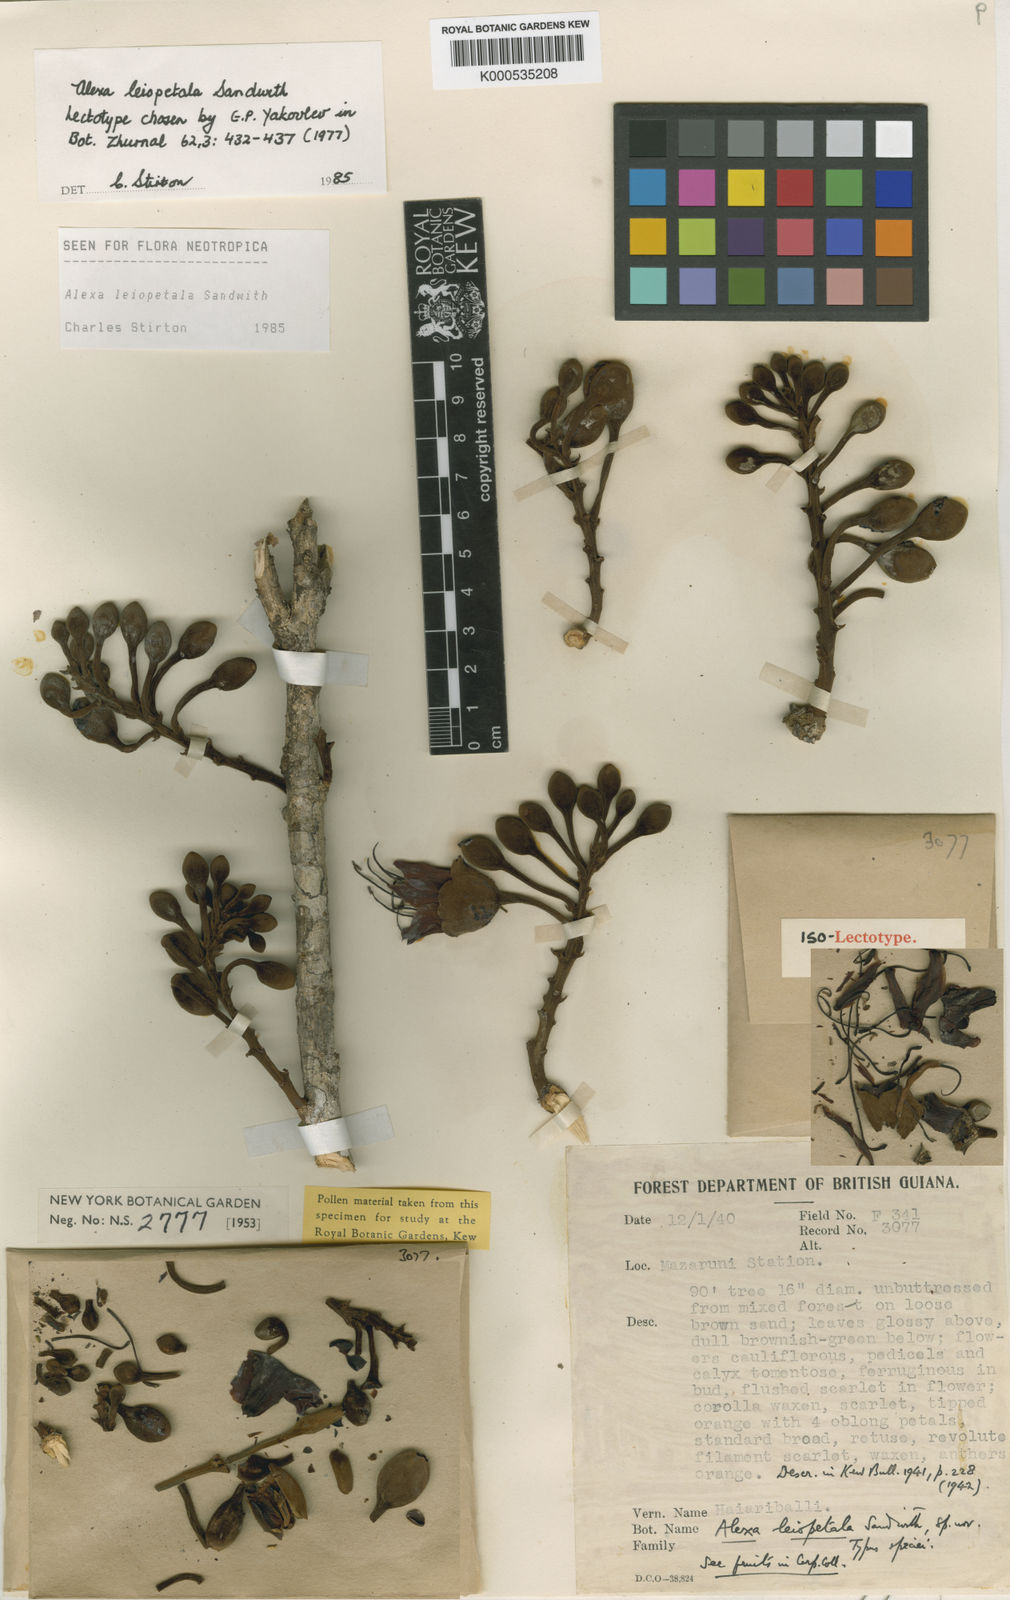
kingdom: Plantae
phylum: Tracheophyta
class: Magnoliopsida
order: Fabales
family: Fabaceae
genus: Alexa
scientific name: Alexa leiopetala
